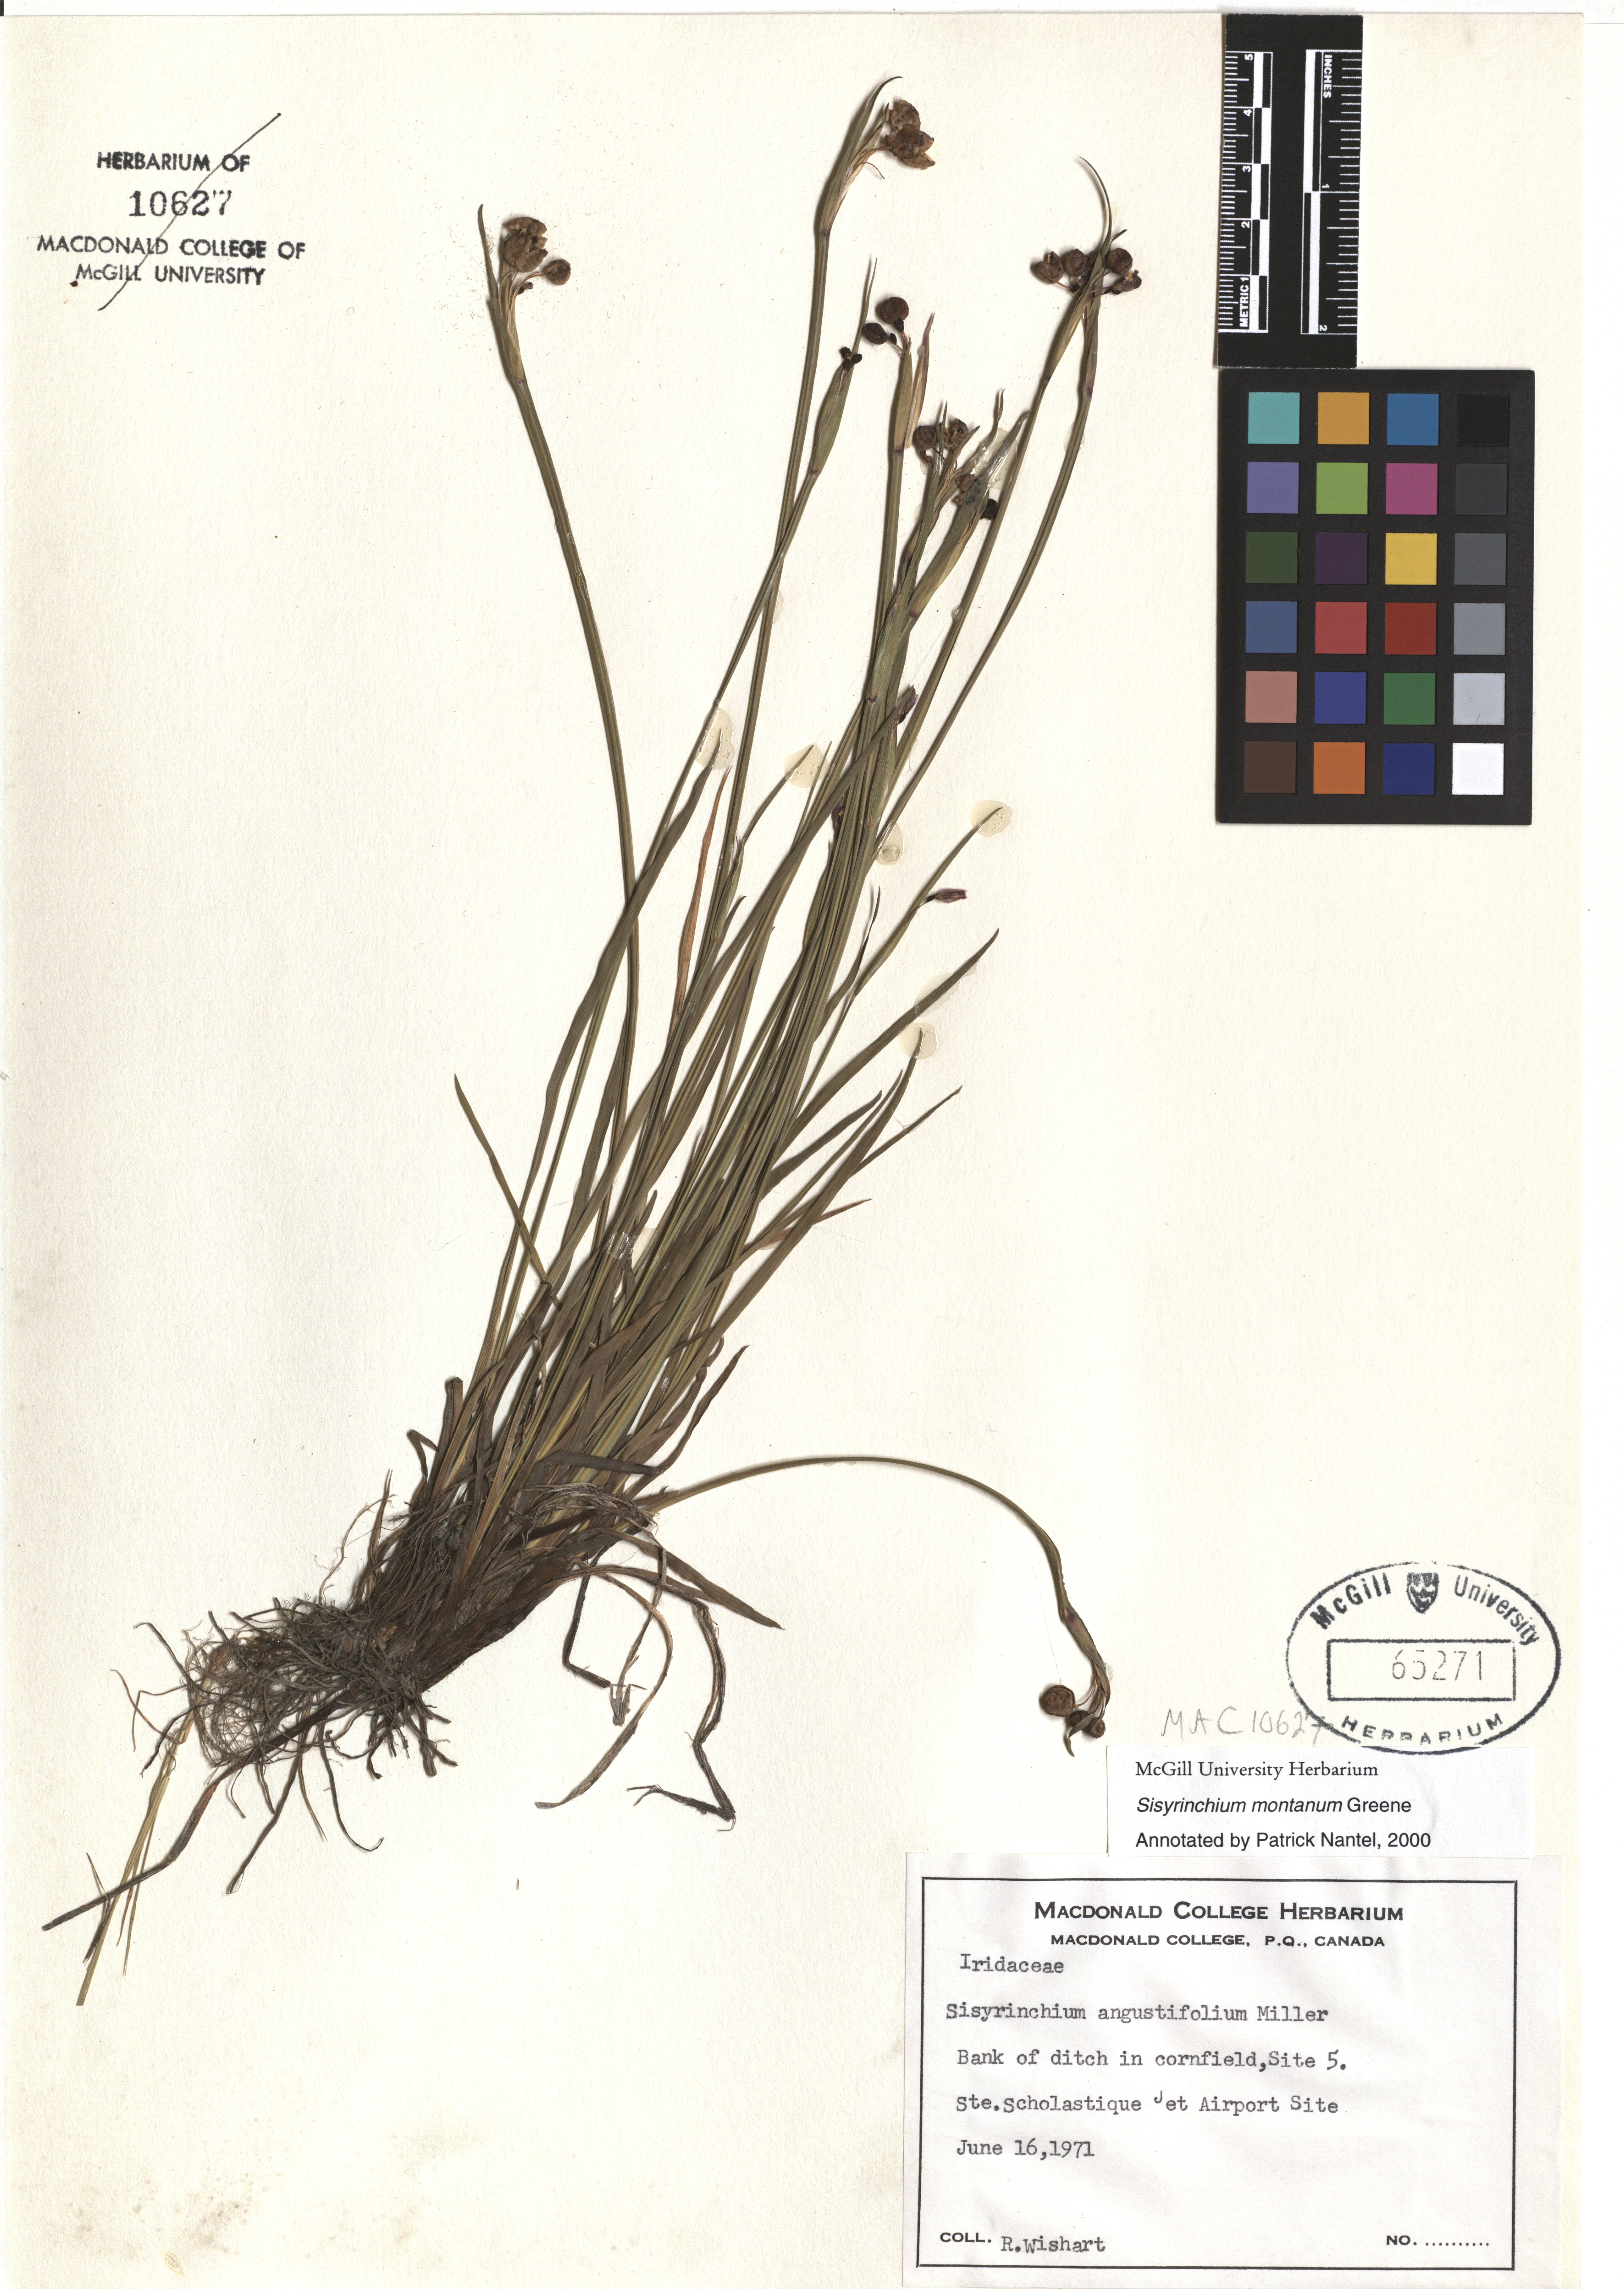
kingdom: Plantae
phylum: Tracheophyta
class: Liliopsida
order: Asparagales
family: Iridaceae
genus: Sisyrinchium
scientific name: Sisyrinchium montanum
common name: American blue-eyed-grass
